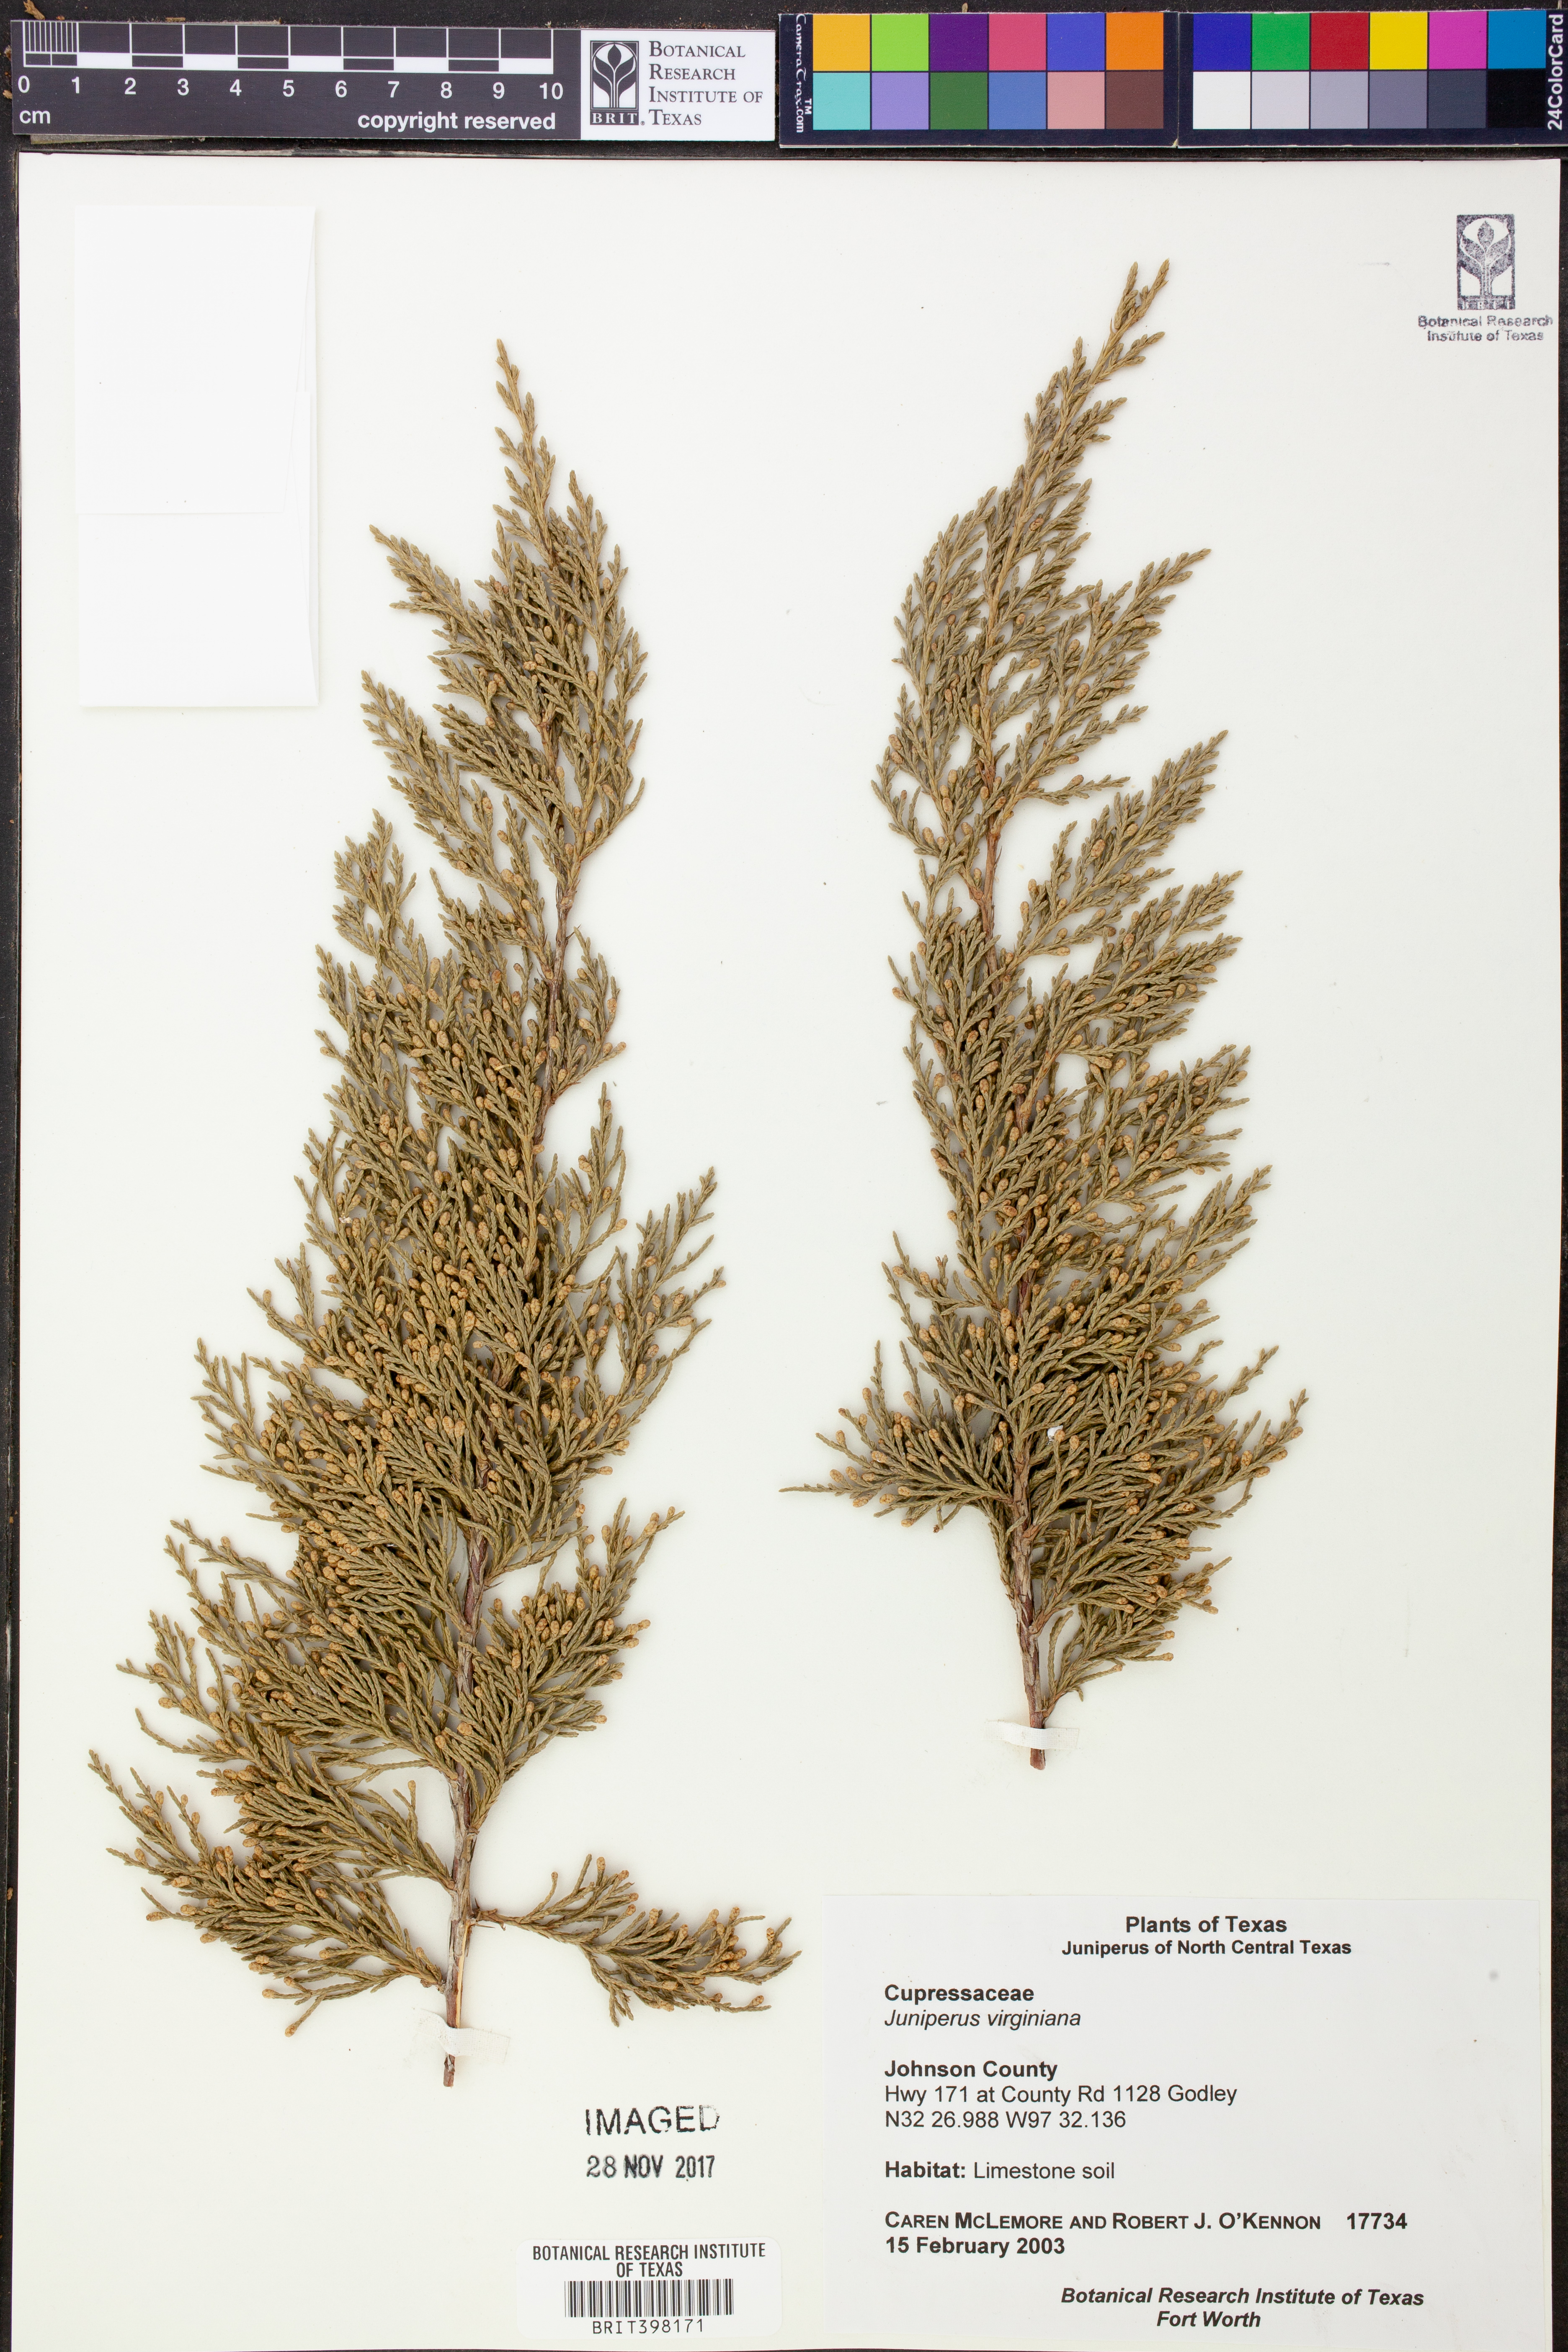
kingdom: Plantae
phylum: Tracheophyta
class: Pinopsida
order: Pinales
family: Cupressaceae
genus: Juniperus
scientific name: Juniperus virginiana
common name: Red juniper
